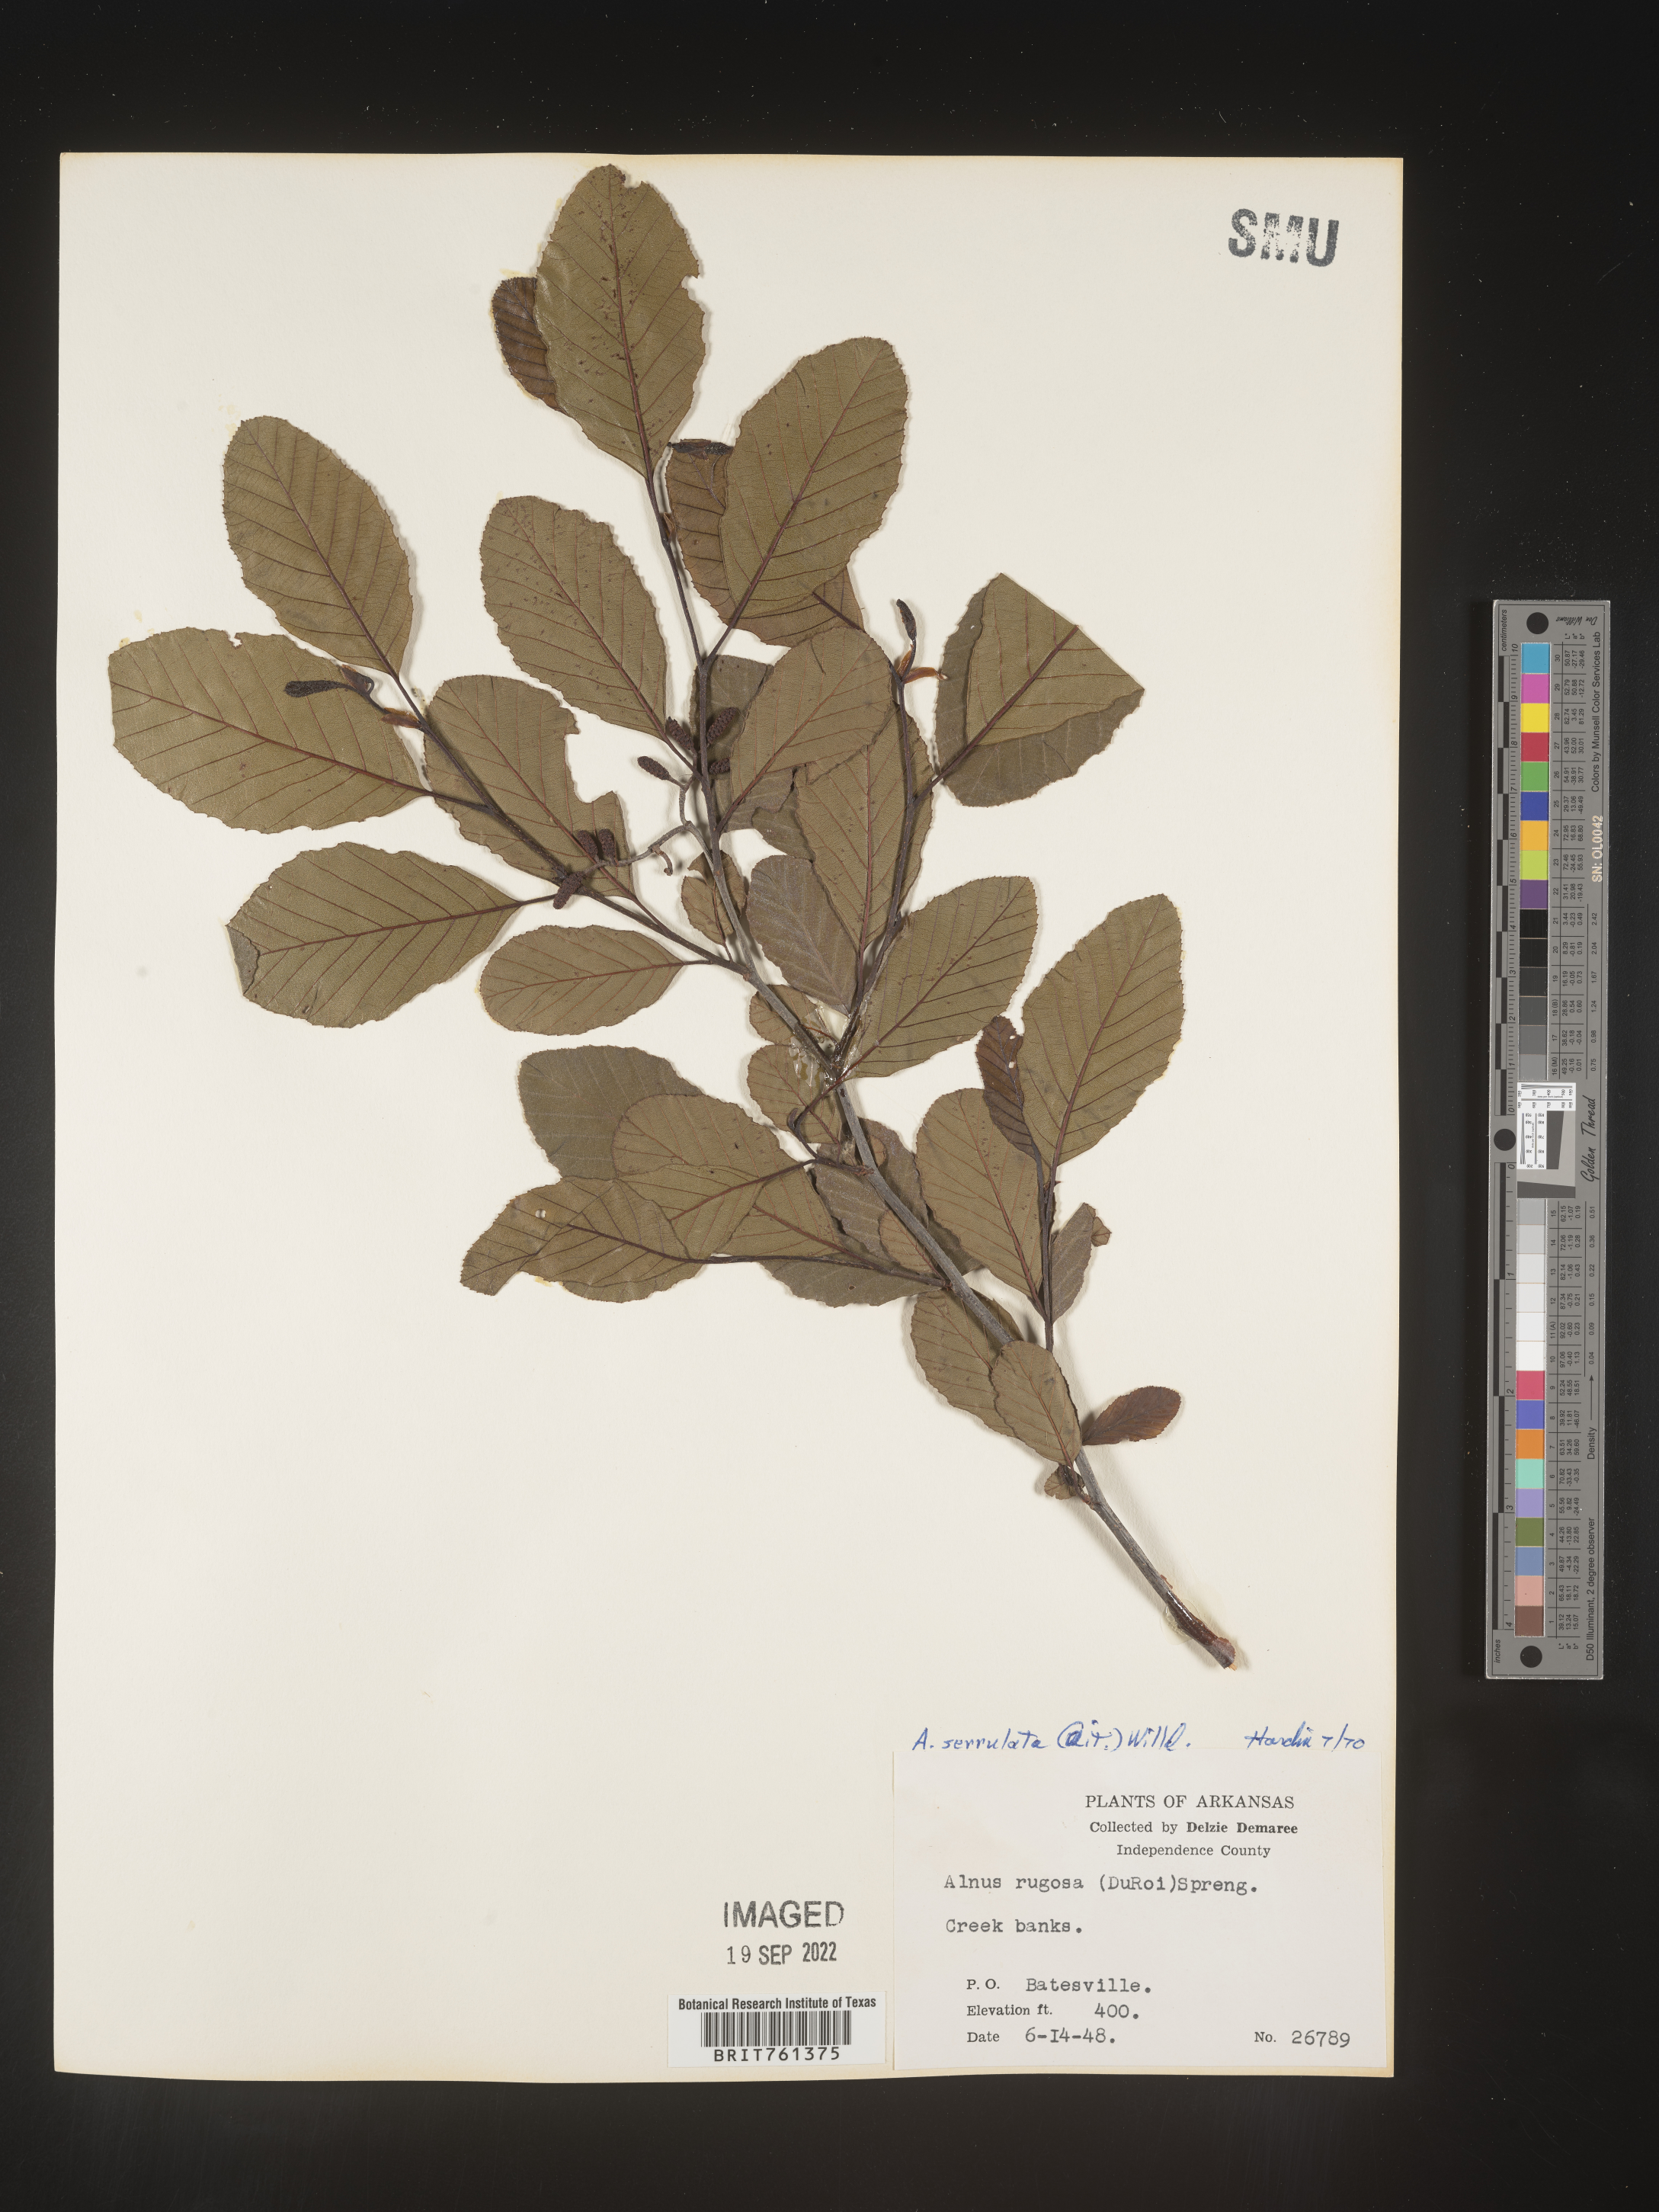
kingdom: Plantae
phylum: Tracheophyta
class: Magnoliopsida
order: Fagales
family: Betulaceae
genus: Alnus
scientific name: Alnus serrulata
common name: Hazel alder
